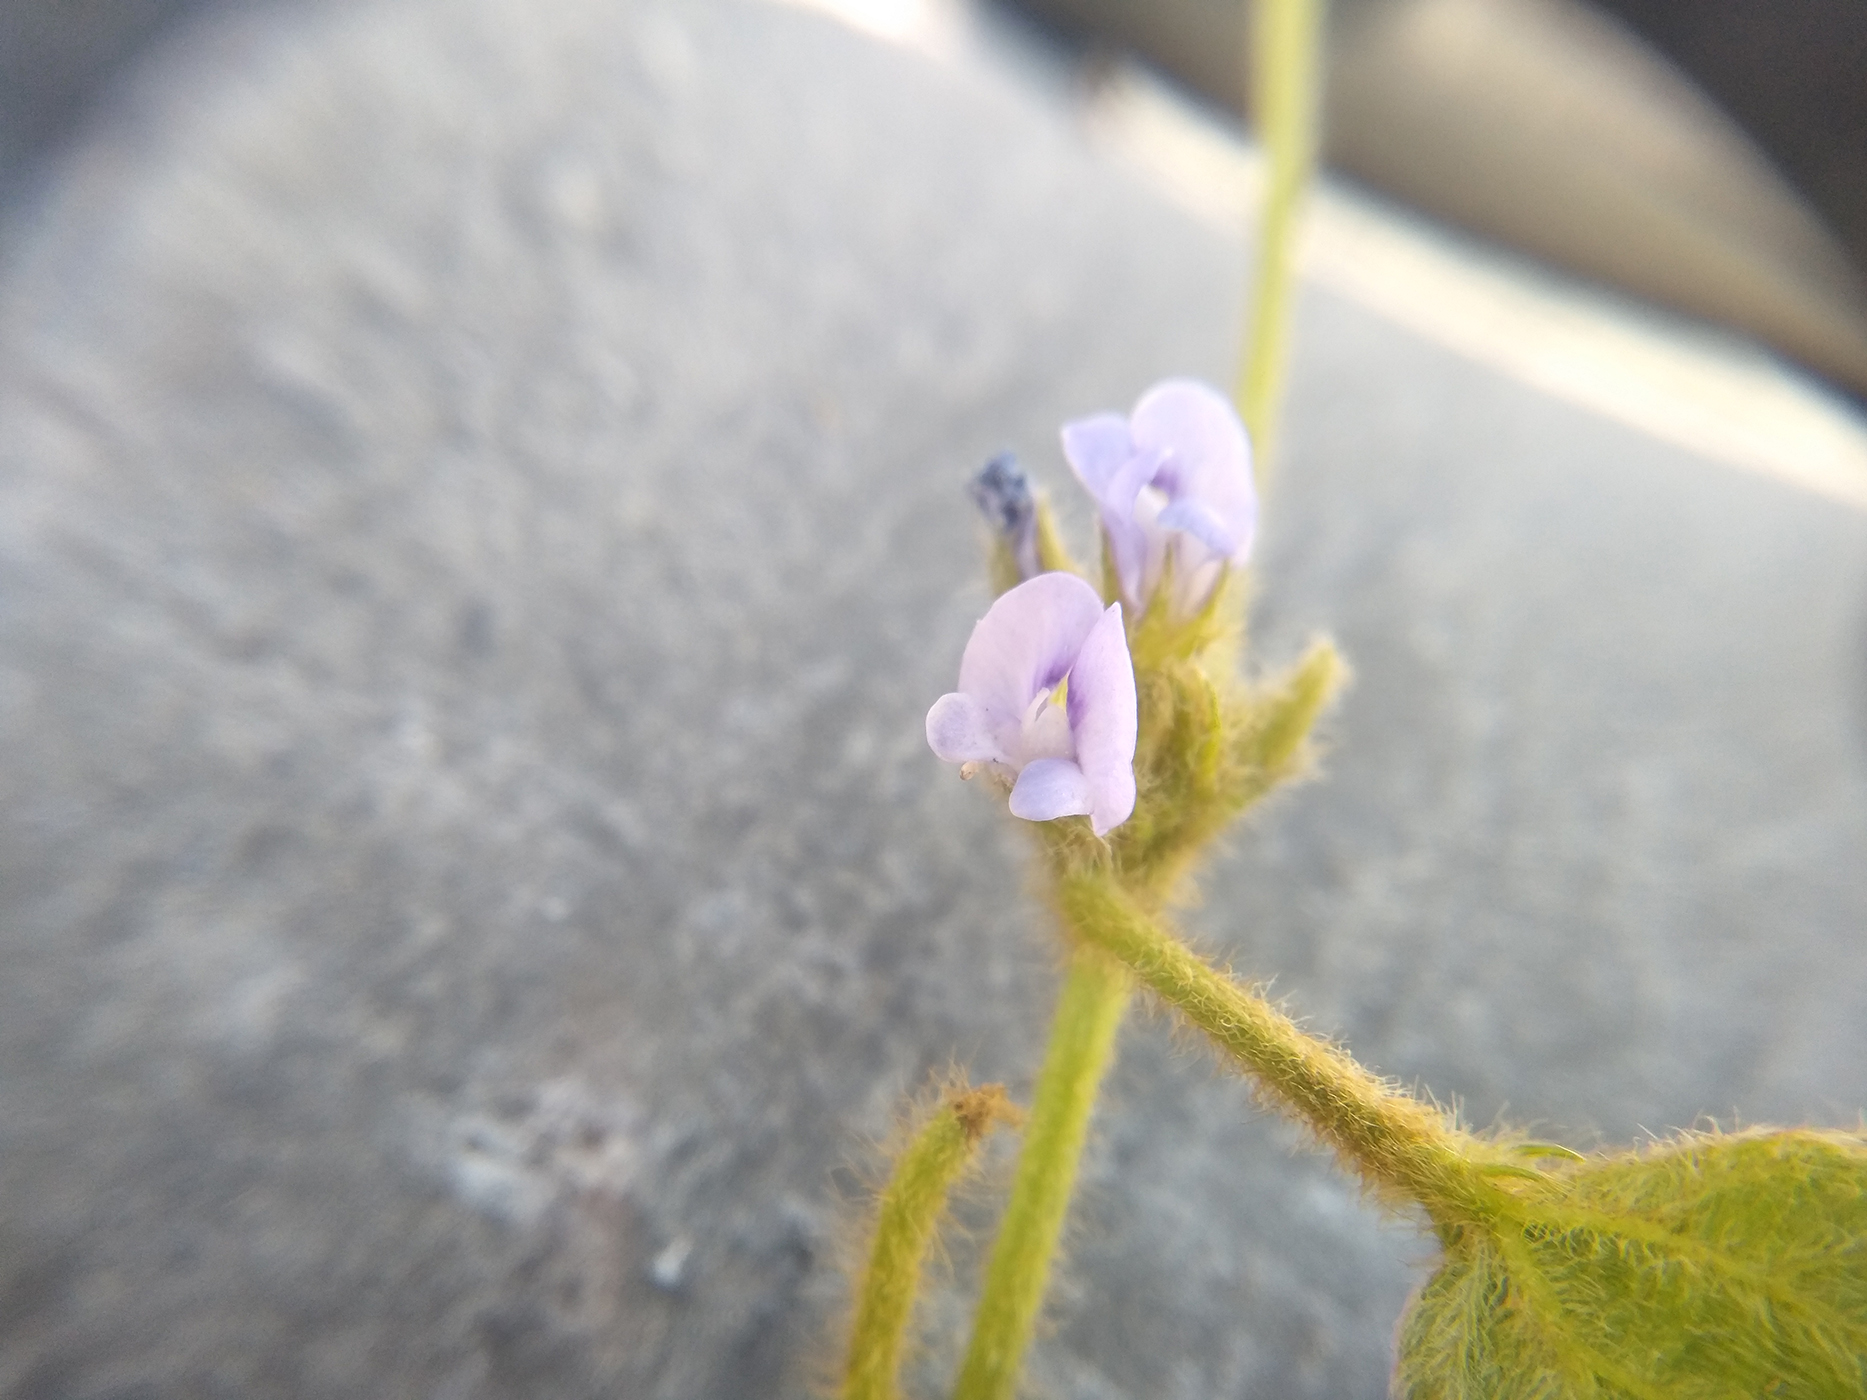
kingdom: Plantae
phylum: Tracheophyta
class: Magnoliopsida
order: Fabales
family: Fabaceae
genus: Calopogonium
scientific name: Calopogonium mucunoides
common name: Calopo
